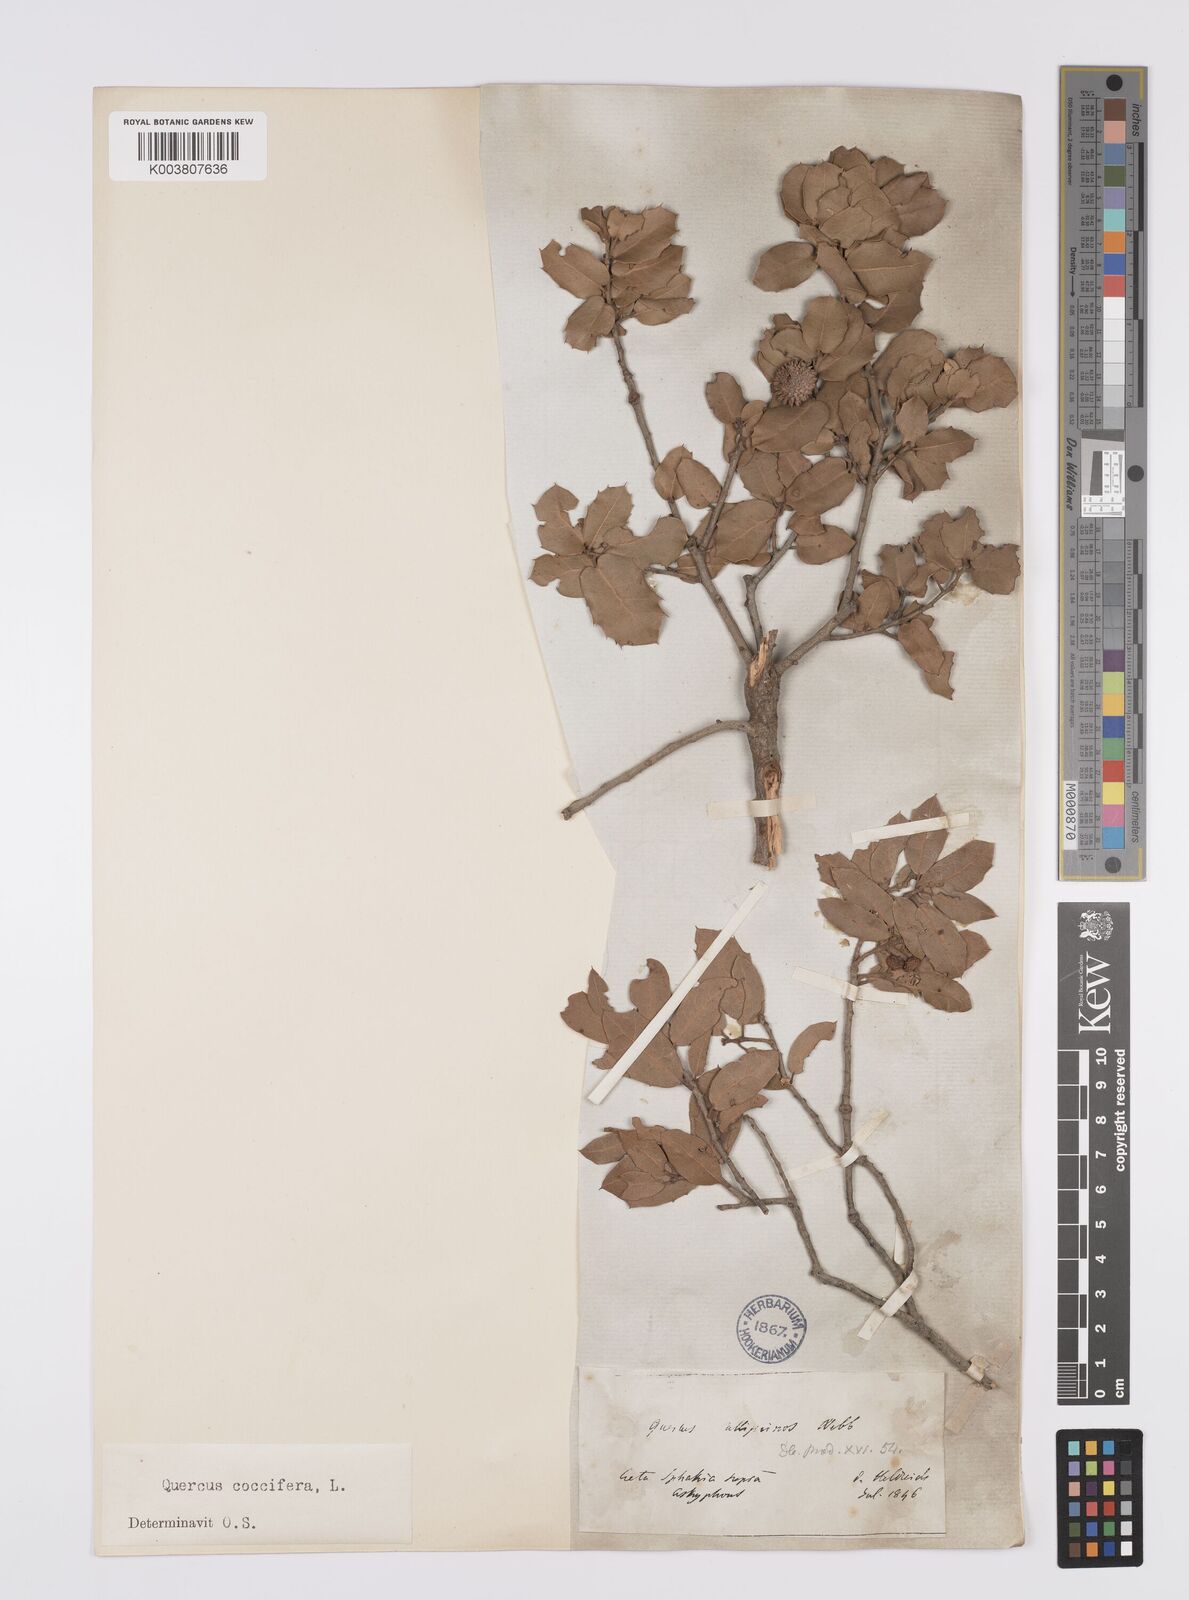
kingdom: Plantae
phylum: Tracheophyta
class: Magnoliopsida
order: Fagales
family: Fagaceae
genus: Quercus
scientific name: Quercus coccifera
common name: Kermes oak
